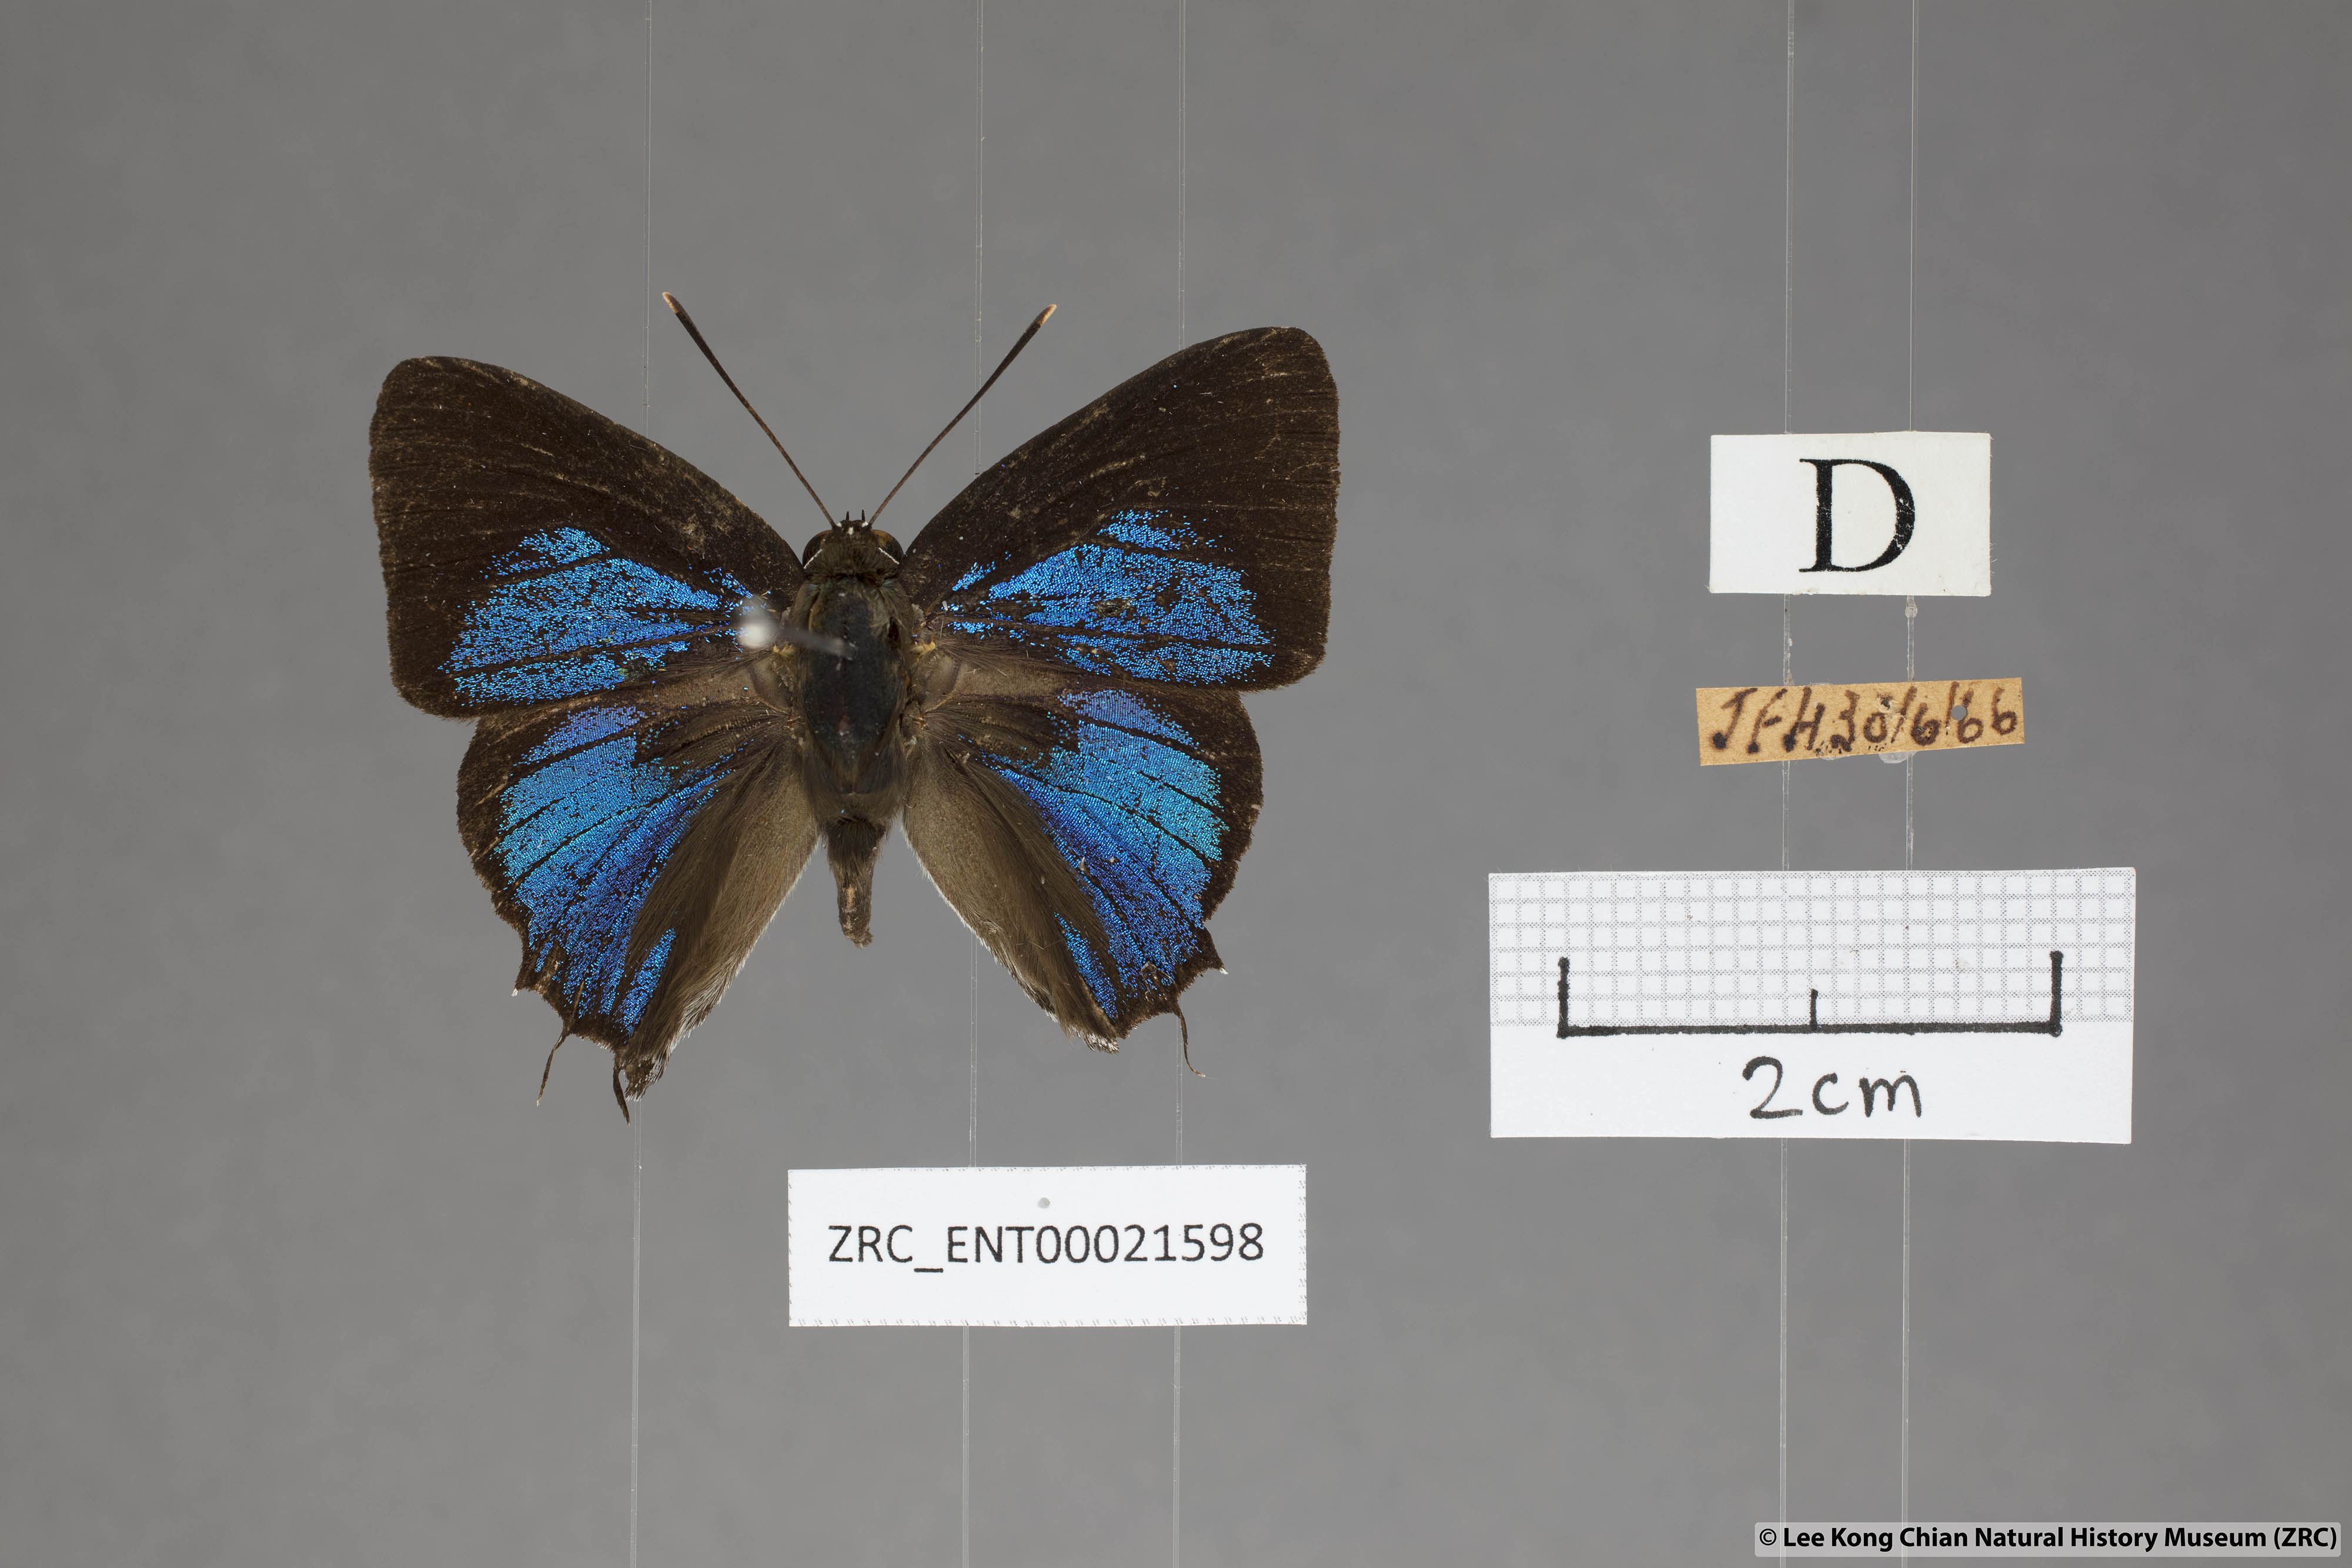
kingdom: Animalia
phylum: Arthropoda
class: Insecta
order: Lepidoptera
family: Lycaenidae
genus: Iraota
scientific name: Iraota rochana
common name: Scarce silverstreak blue
